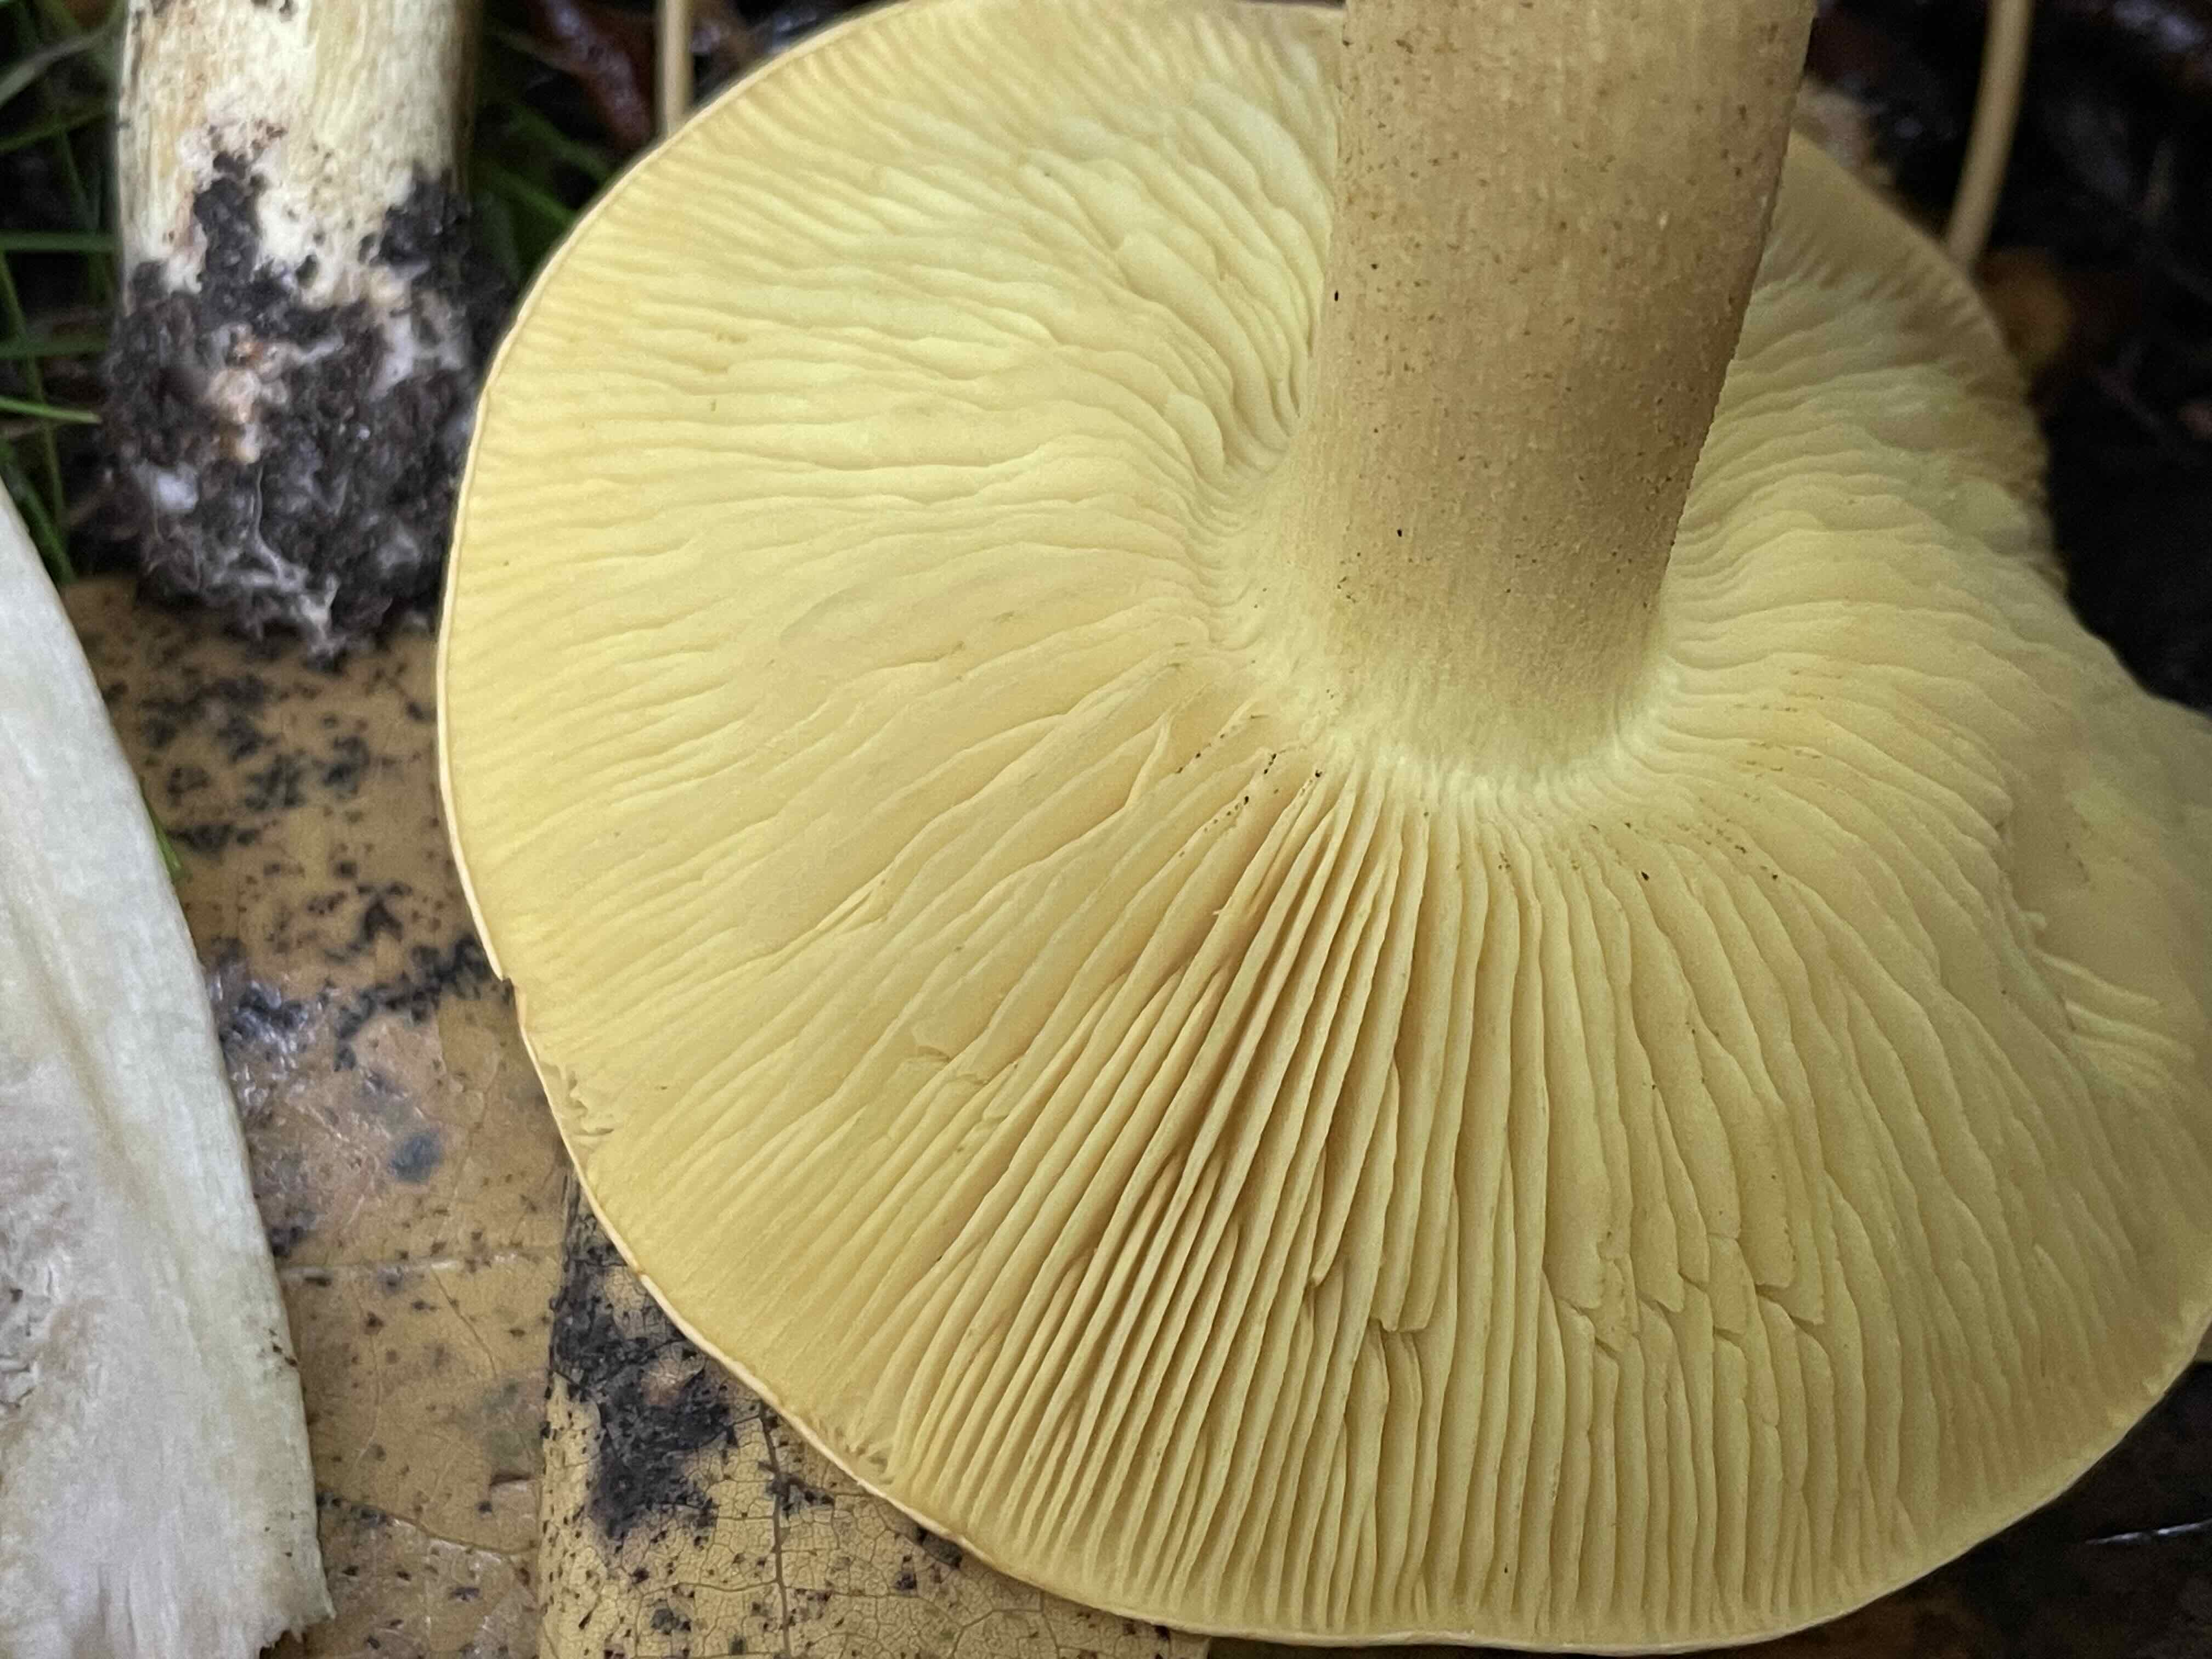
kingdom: Fungi
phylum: Basidiomycota
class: Agaricomycetes
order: Agaricales
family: Tricholomataceae
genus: Tricholoma
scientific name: Tricholoma frondosae
